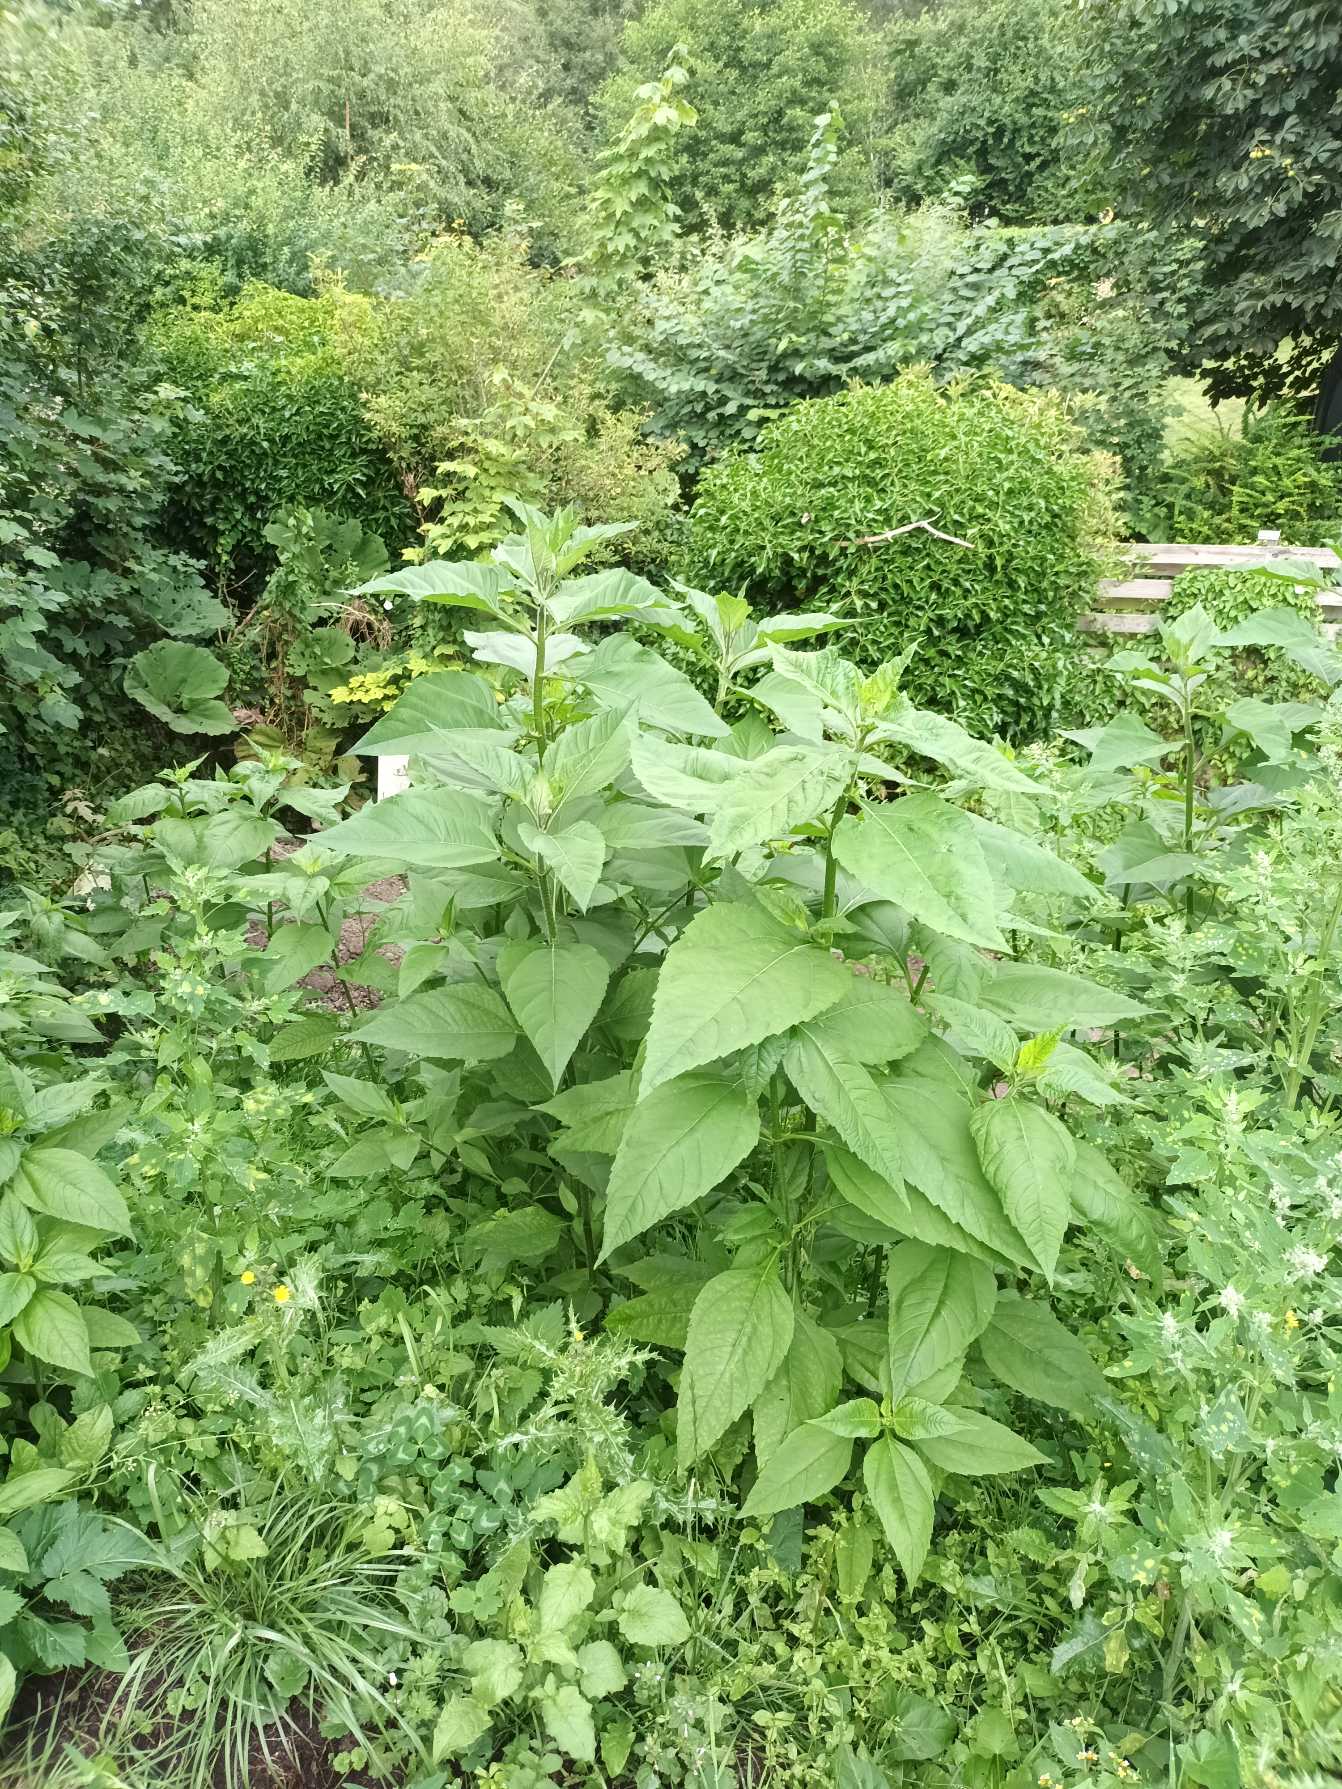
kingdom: Plantae
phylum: Tracheophyta
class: Magnoliopsida
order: Asterales
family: Asteraceae
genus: Helianthus
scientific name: Helianthus tuberosus
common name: Jordskok
